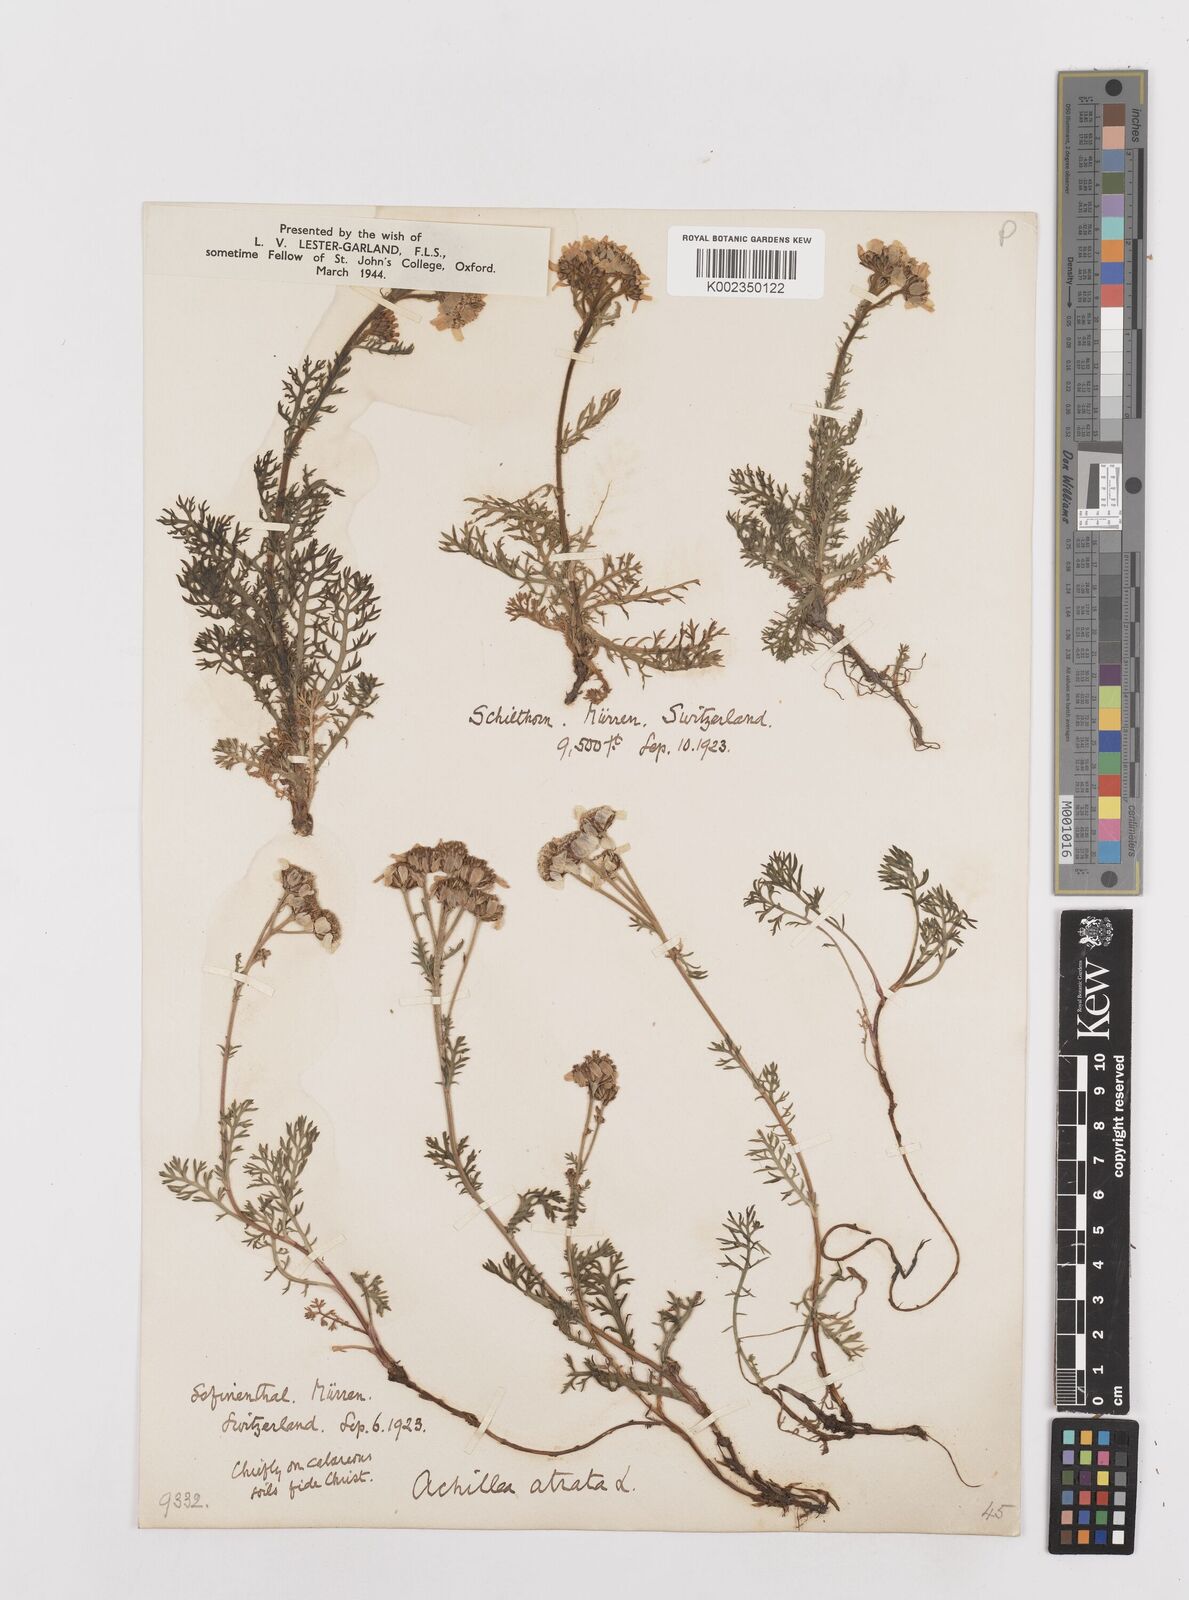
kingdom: Plantae
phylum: Tracheophyta
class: Magnoliopsida
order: Asterales
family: Asteraceae
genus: Achillea
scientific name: Achillea atrata
